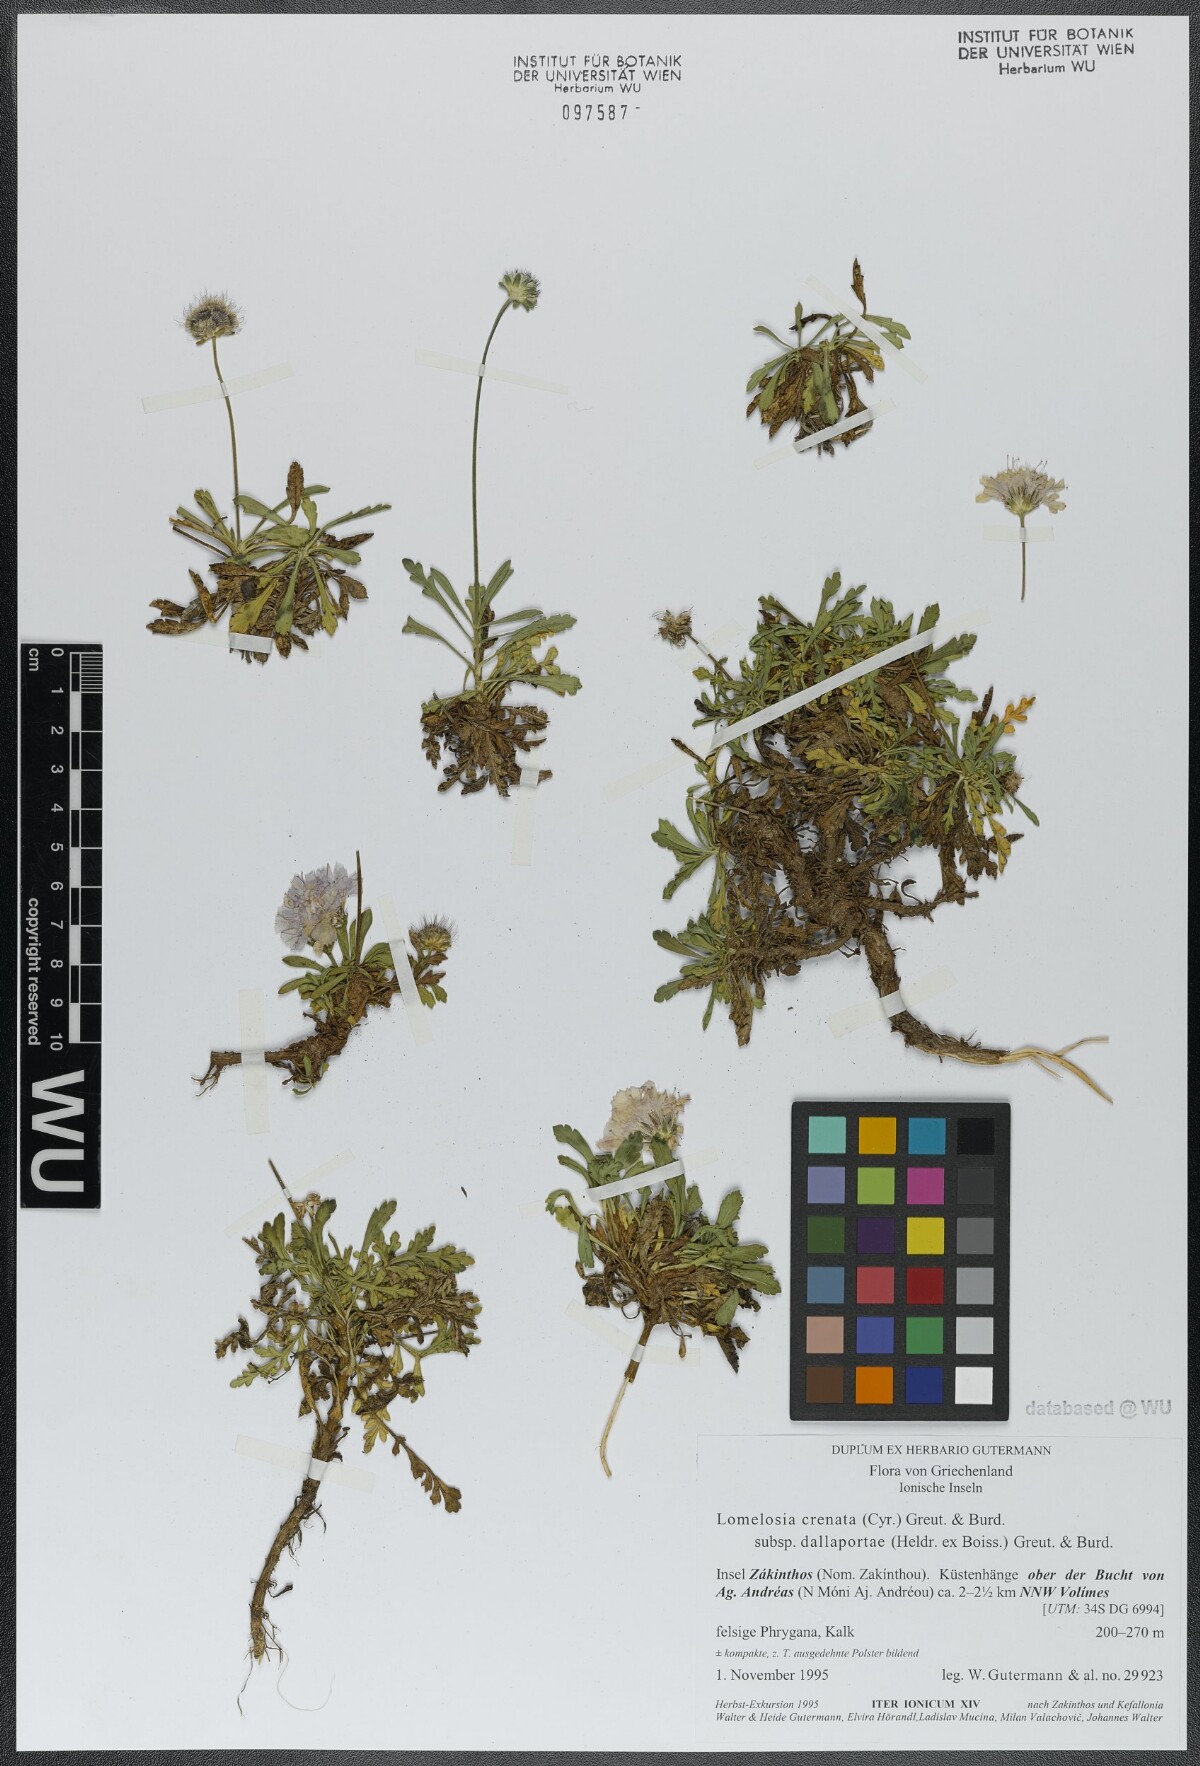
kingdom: Plantae
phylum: Tracheophyta
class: Magnoliopsida
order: Dipsacales
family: Caprifoliaceae
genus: Lomelosia
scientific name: Lomelosia crenata
